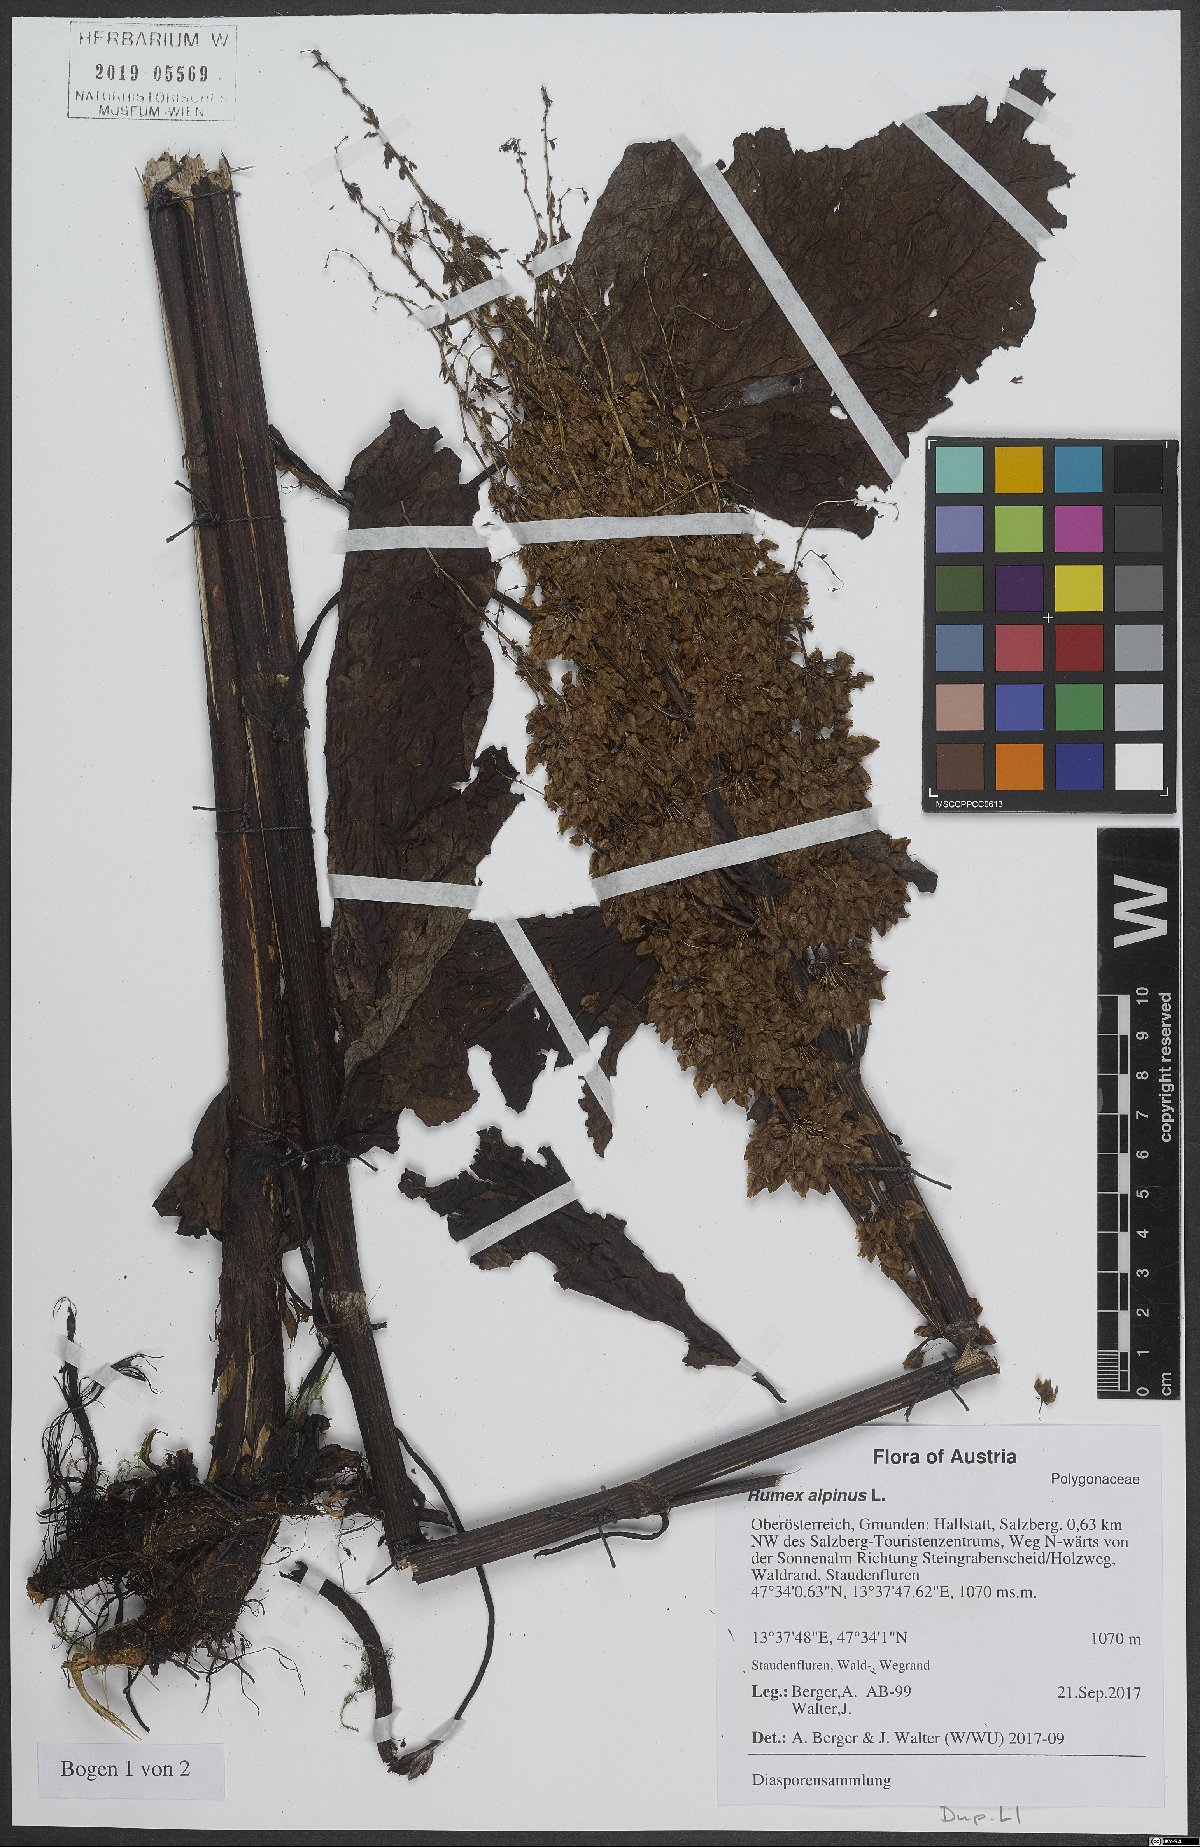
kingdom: Plantae
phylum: Tracheophyta
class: Magnoliopsida
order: Caryophyllales
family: Polygonaceae
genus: Rumex
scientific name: Rumex alpinus
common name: Alpine dock
